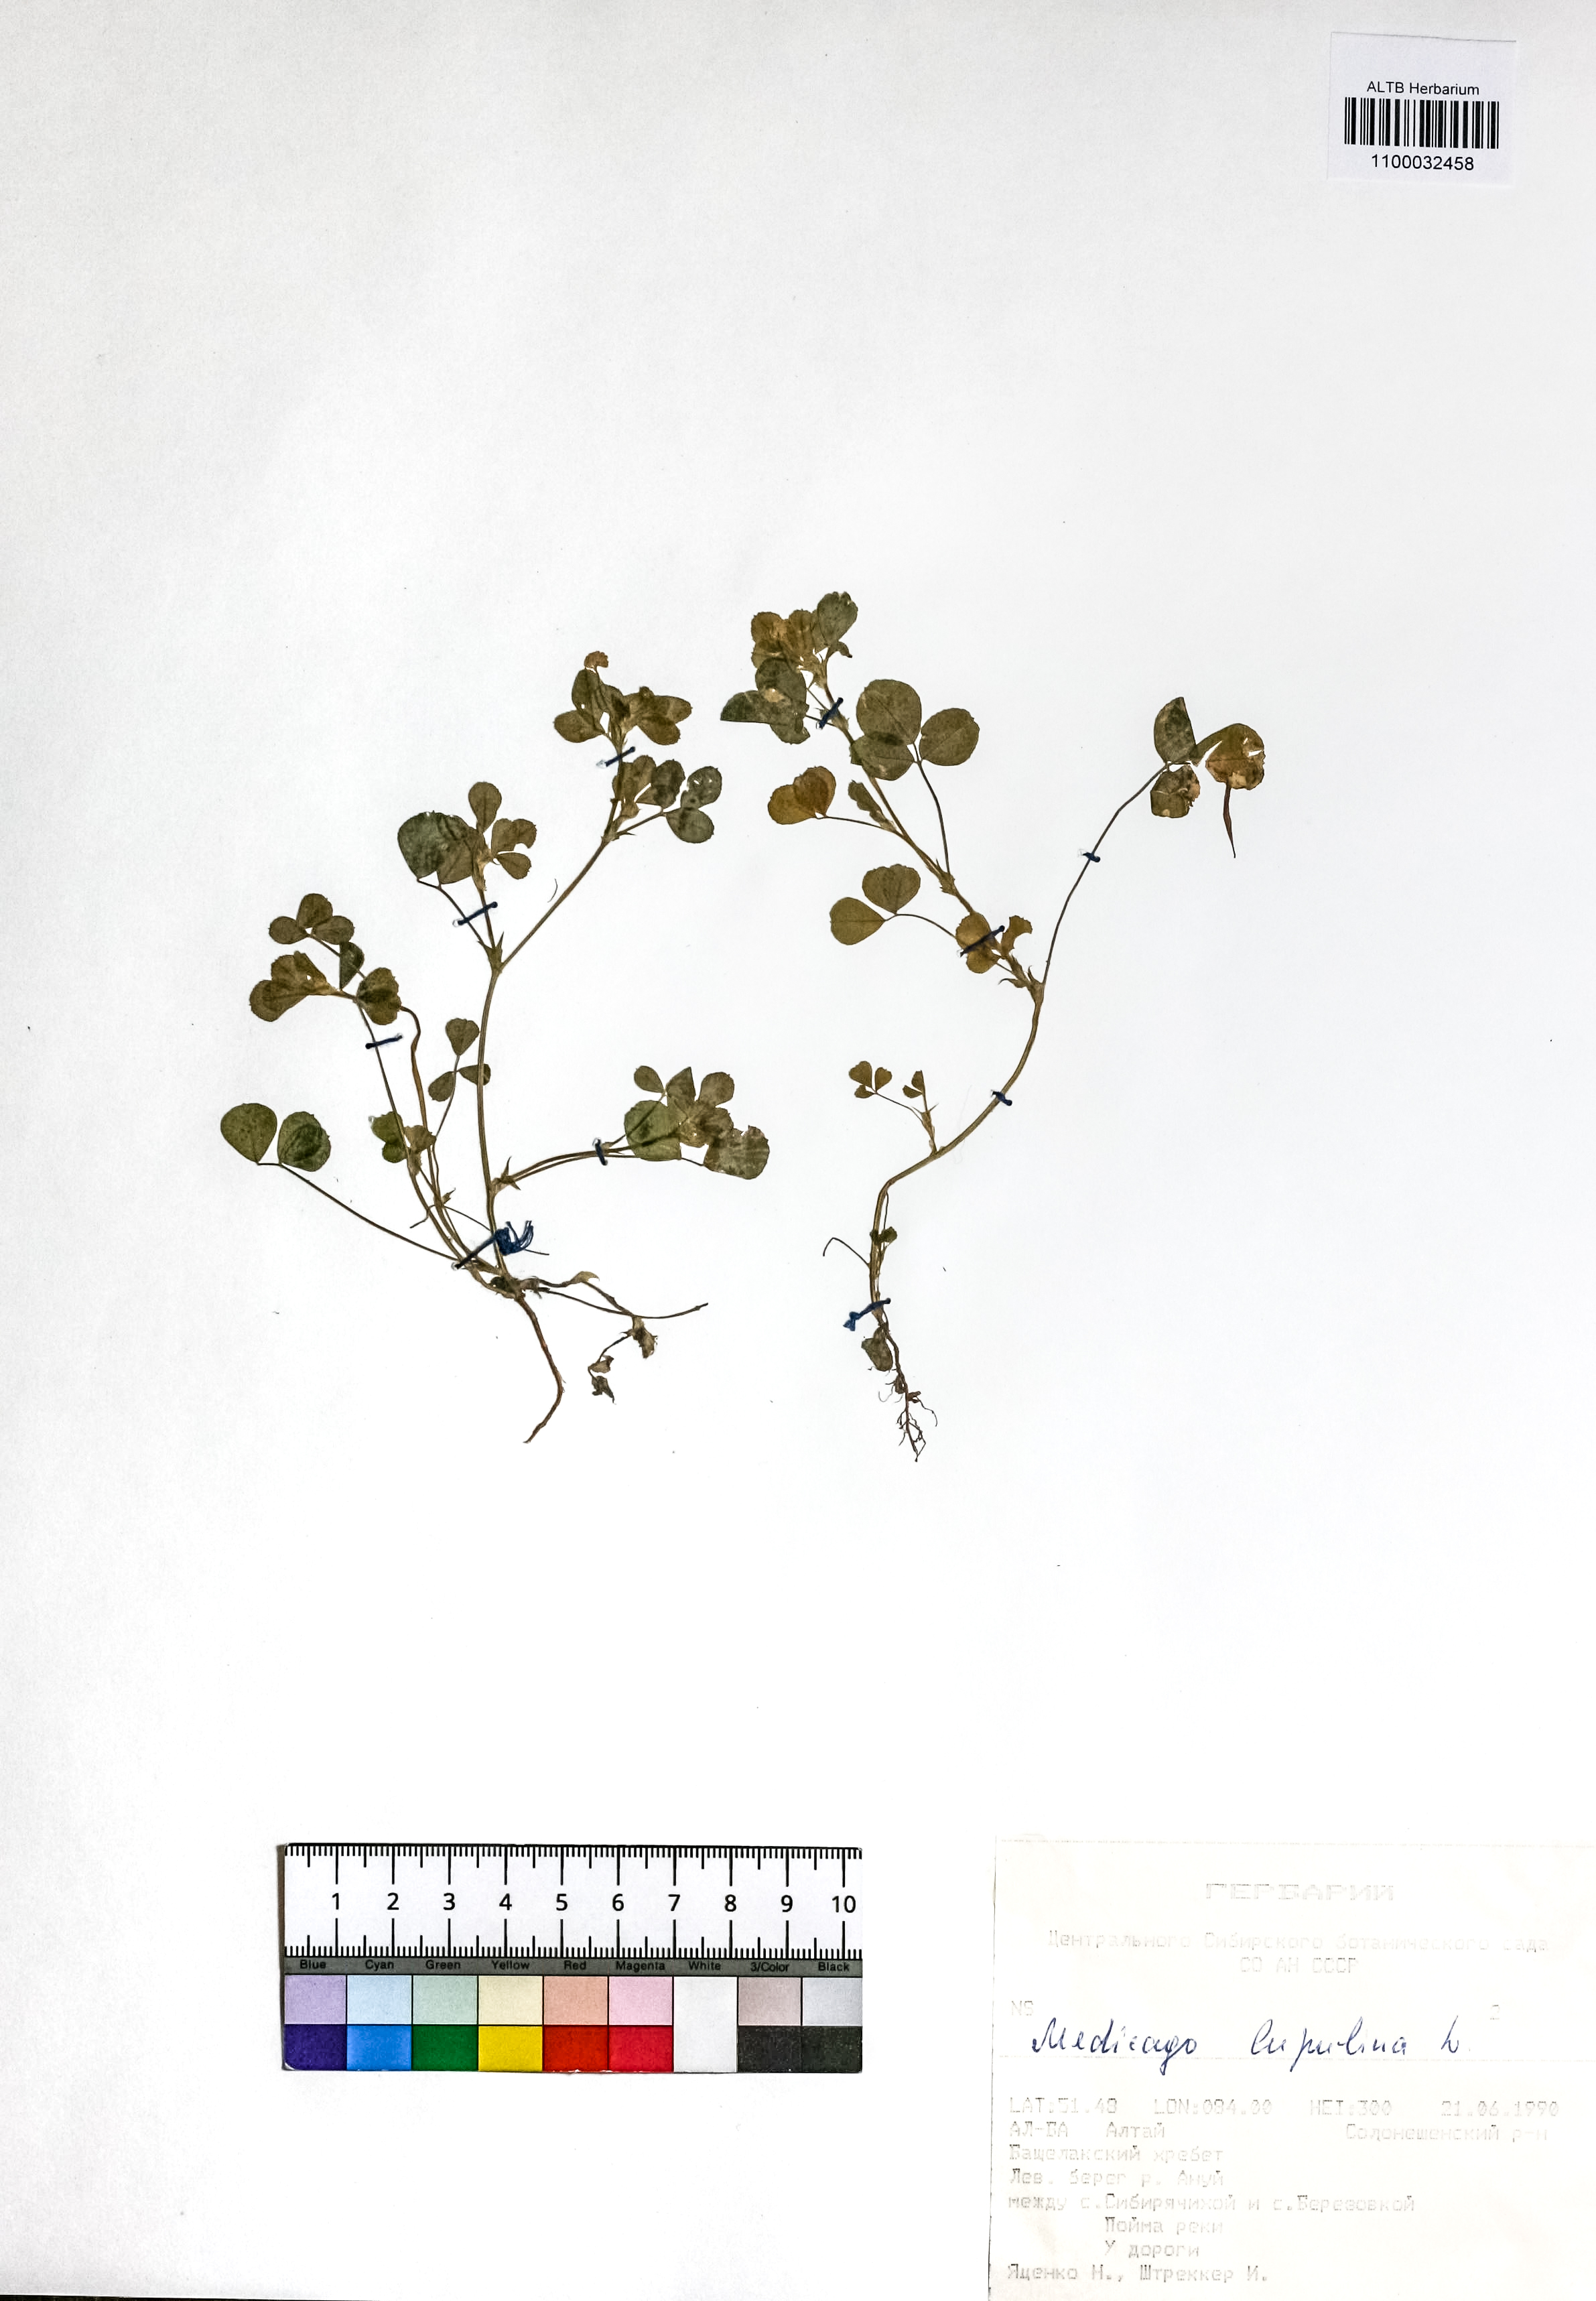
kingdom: Plantae
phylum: Tracheophyta
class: Magnoliopsida
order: Fabales
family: Fabaceae
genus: Medicago
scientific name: Medicago lupulina
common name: Black medick
